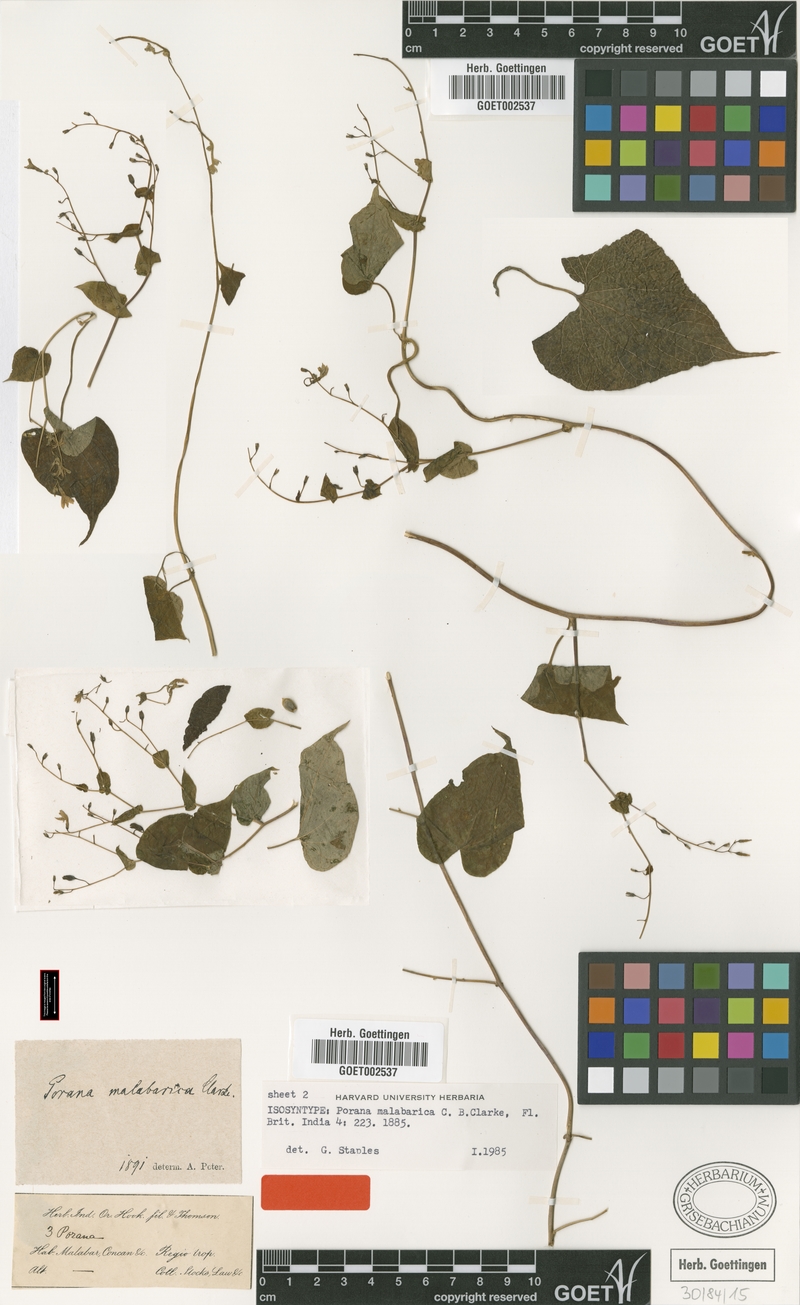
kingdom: Plantae
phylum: Tracheophyta
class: Magnoliopsida
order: Solanales
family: Convolvulaceae
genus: Dinetus
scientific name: Dinetus malabaricus
